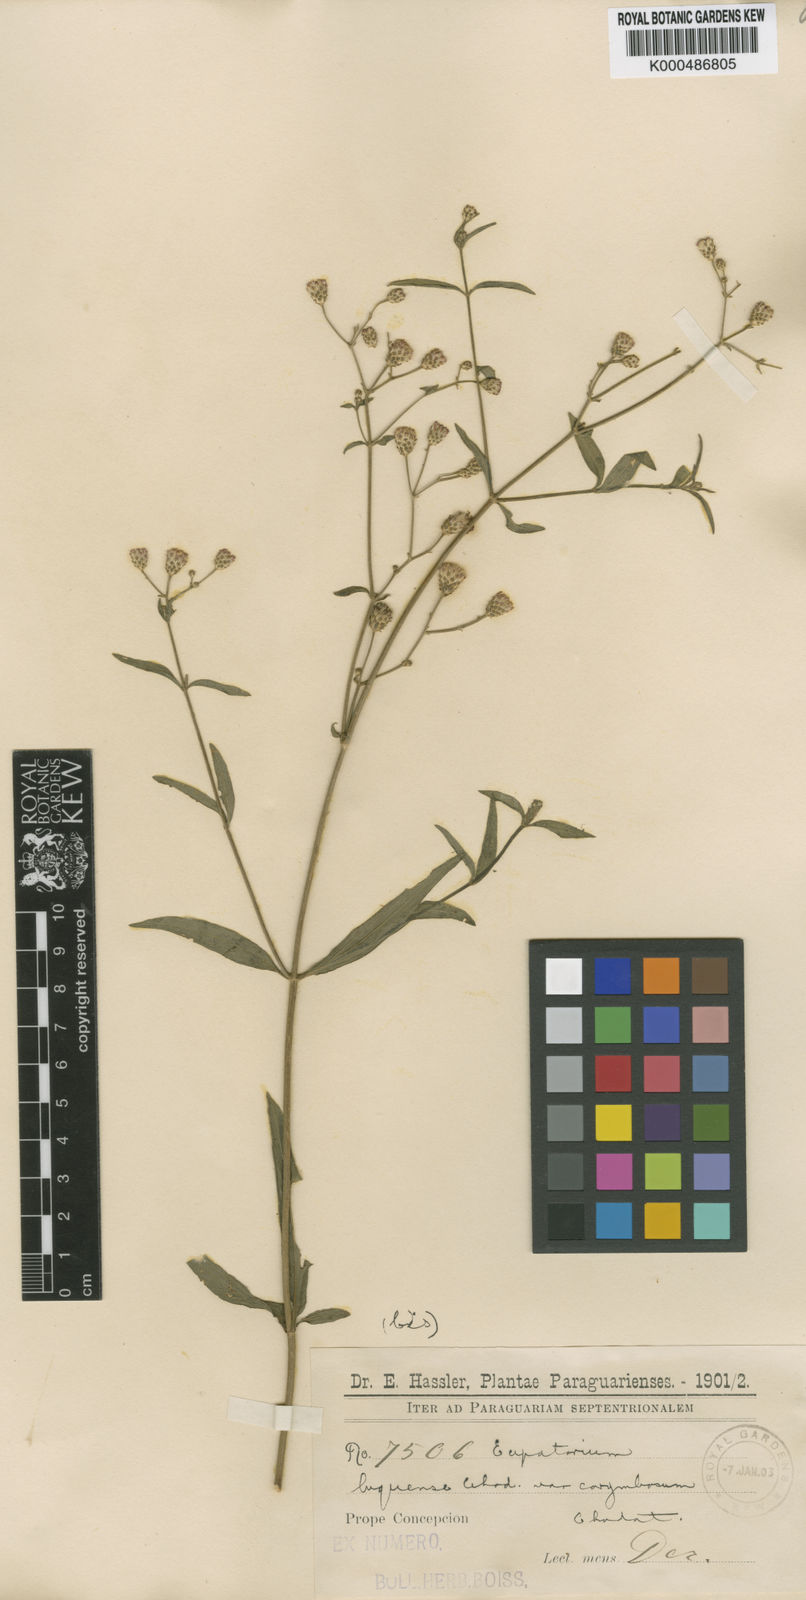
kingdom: Plantae
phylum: Tracheophyta
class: Magnoliopsida
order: Asterales
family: Asteraceae
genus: Chromolaena
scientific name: Chromolaena ivifolia
